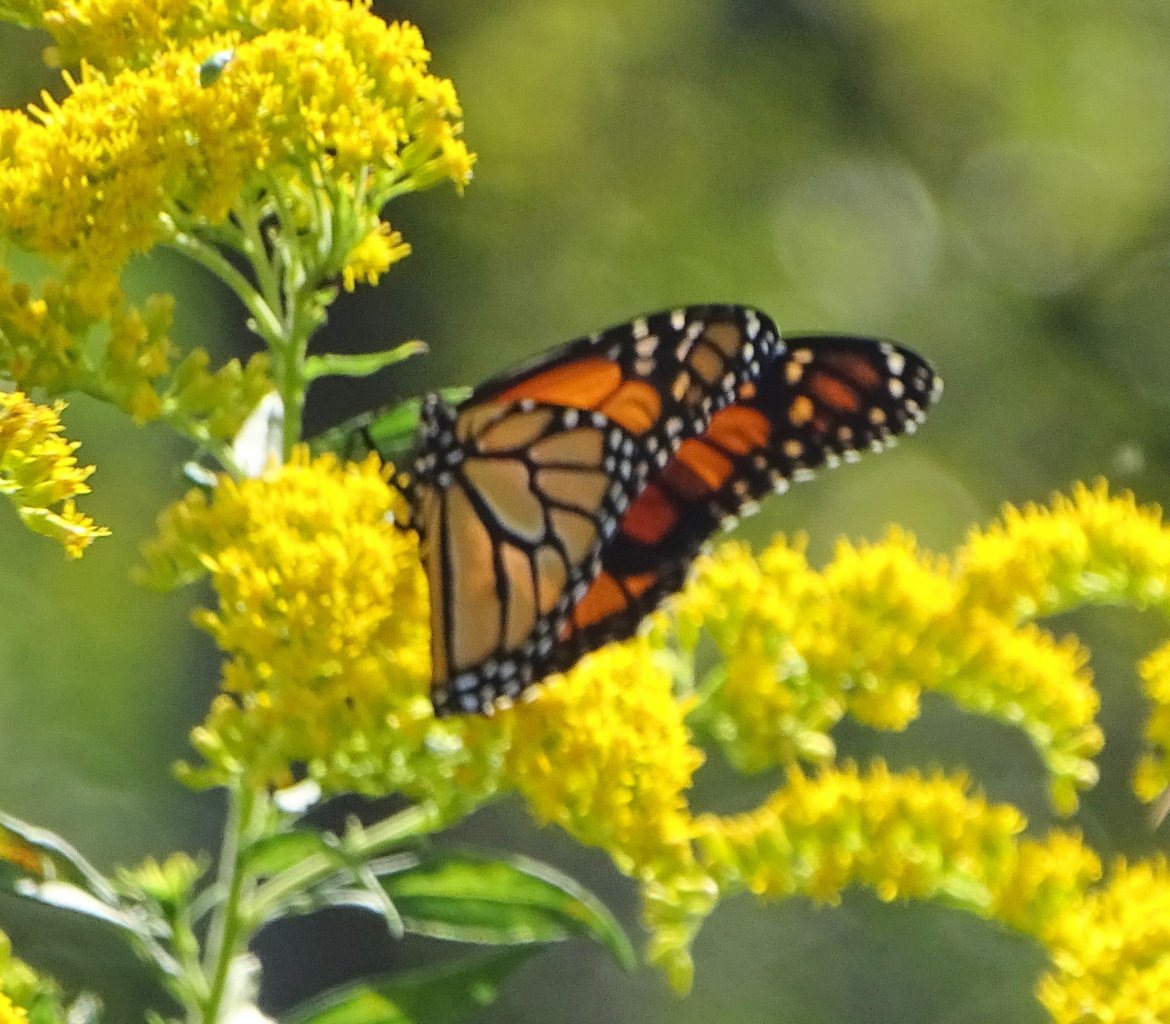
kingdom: Animalia
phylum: Arthropoda
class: Insecta
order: Lepidoptera
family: Nymphalidae
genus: Danaus
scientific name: Danaus plexippus
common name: Monarch
